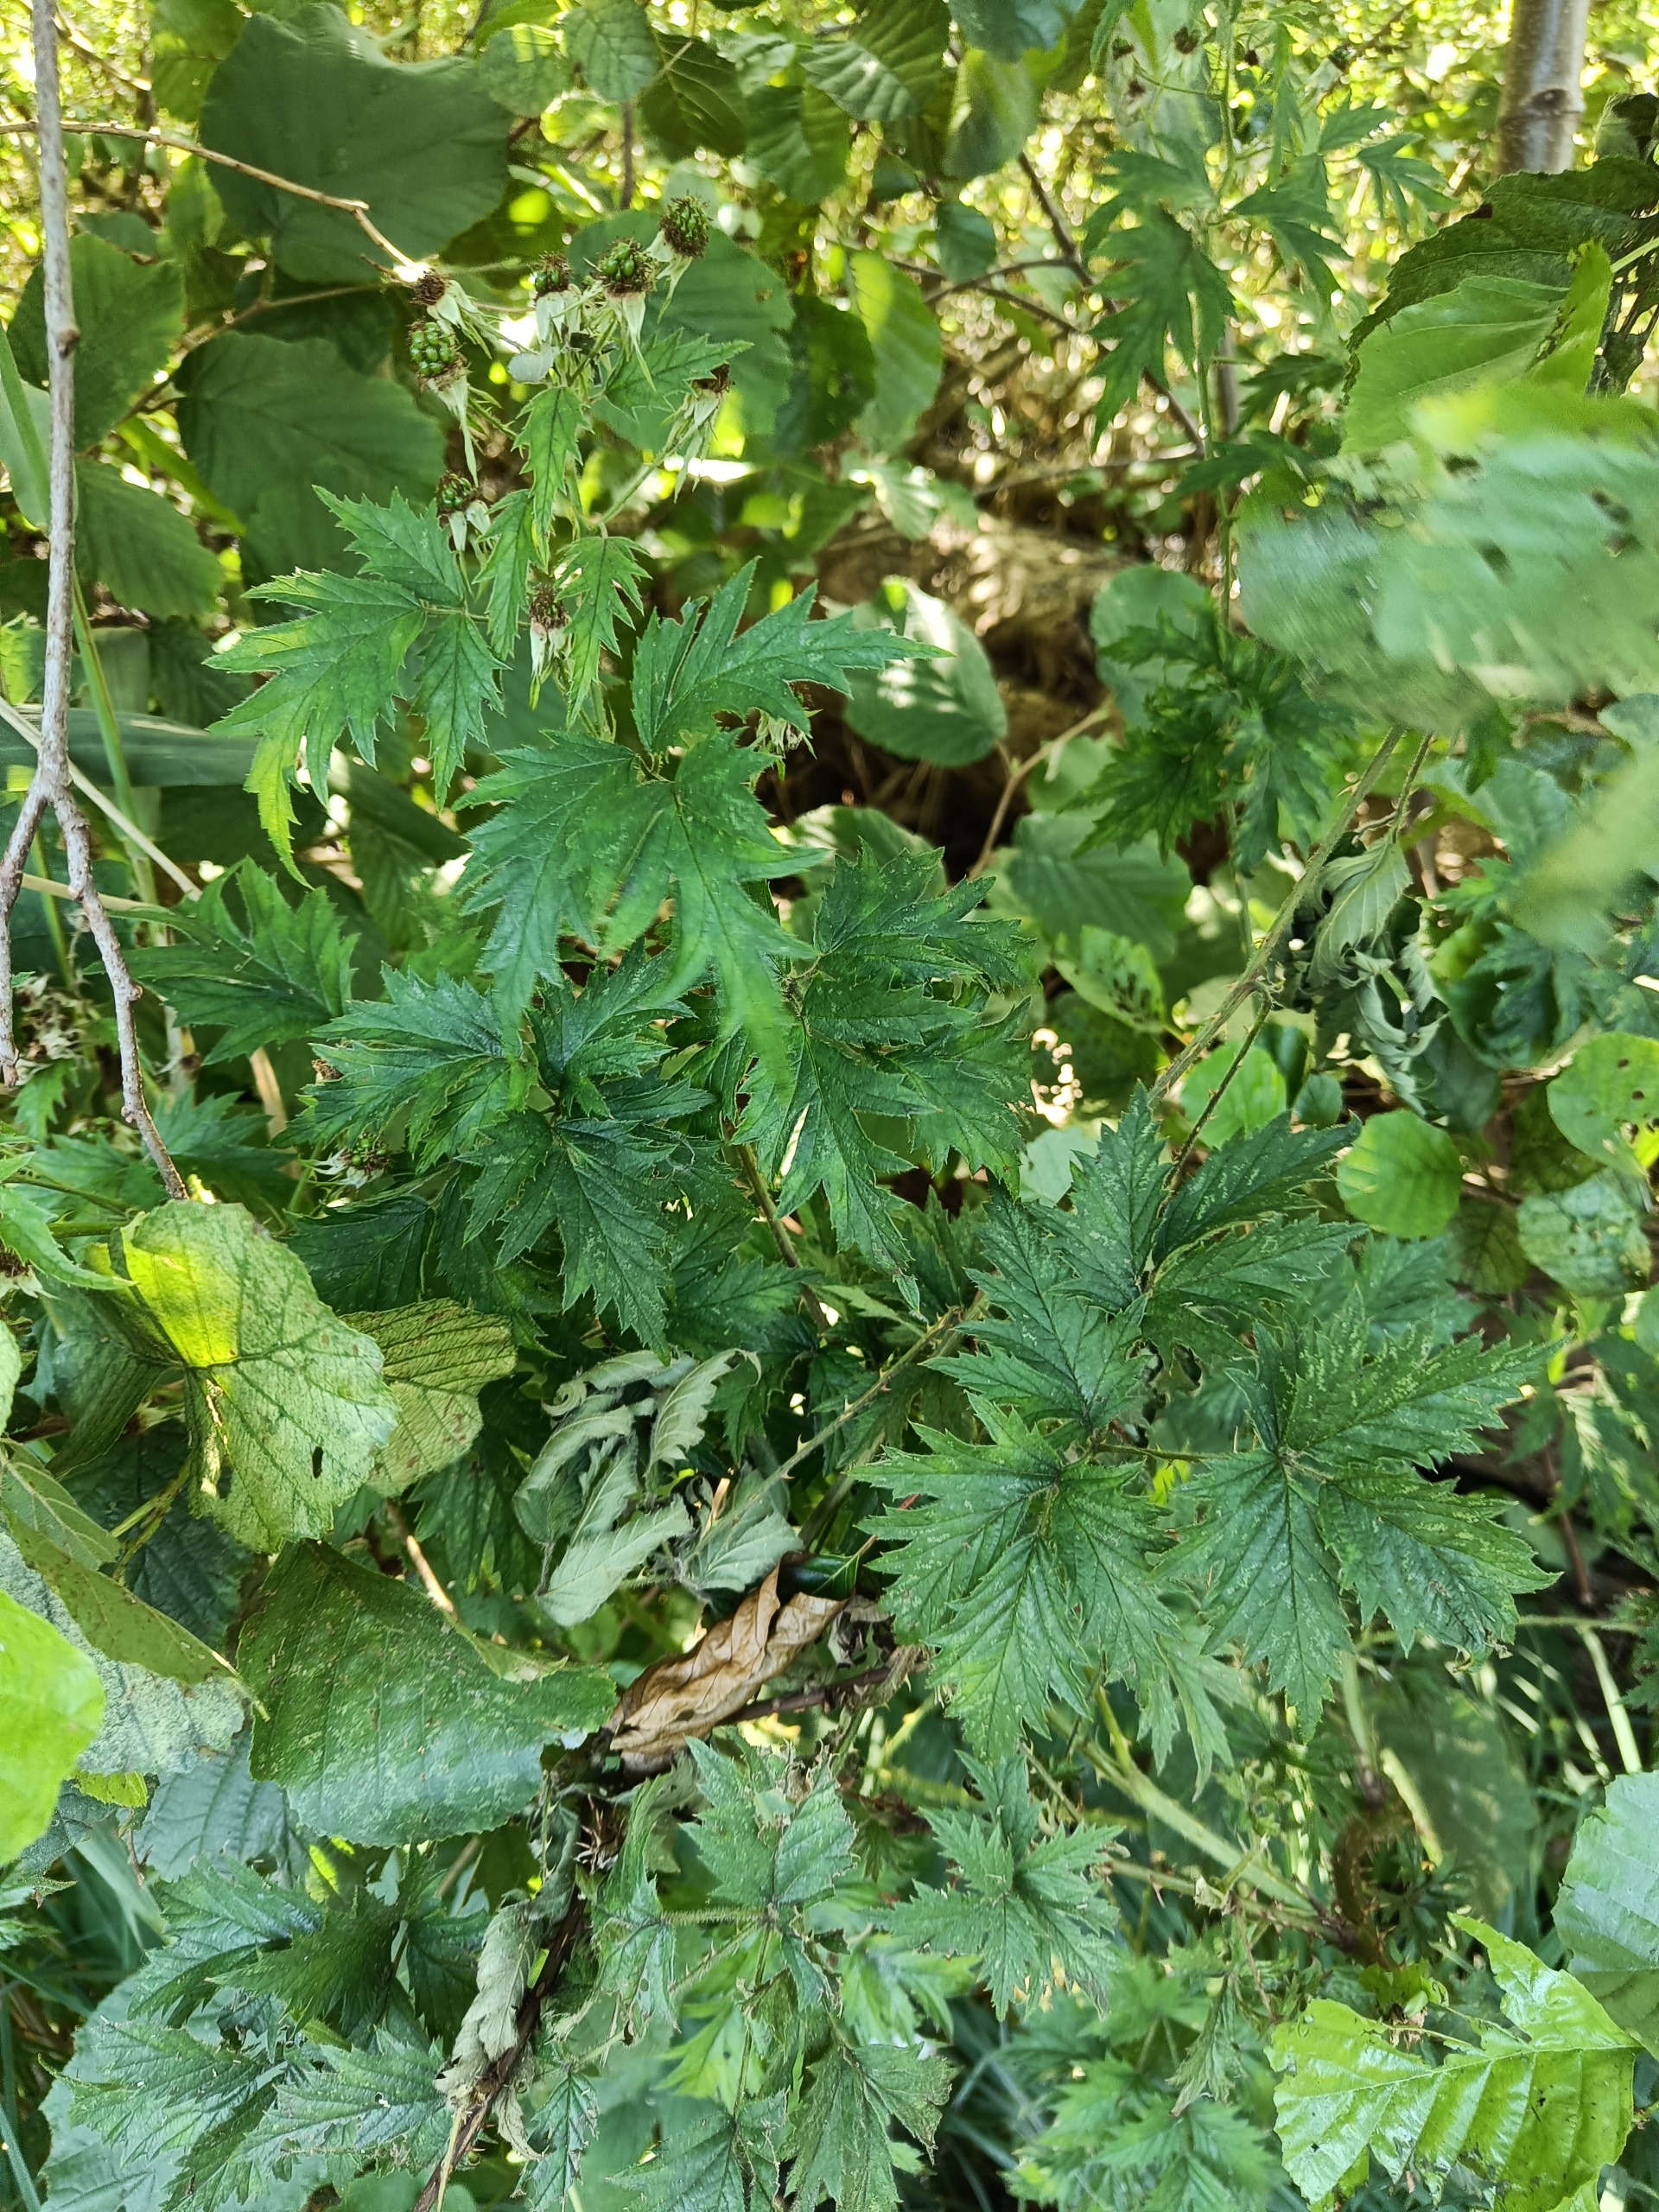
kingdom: Plantae
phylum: Tracheophyta
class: Magnoliopsida
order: Rosales
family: Rosaceae
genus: Rubus
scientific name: Rubus laciniatus
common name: Fliget brombær
